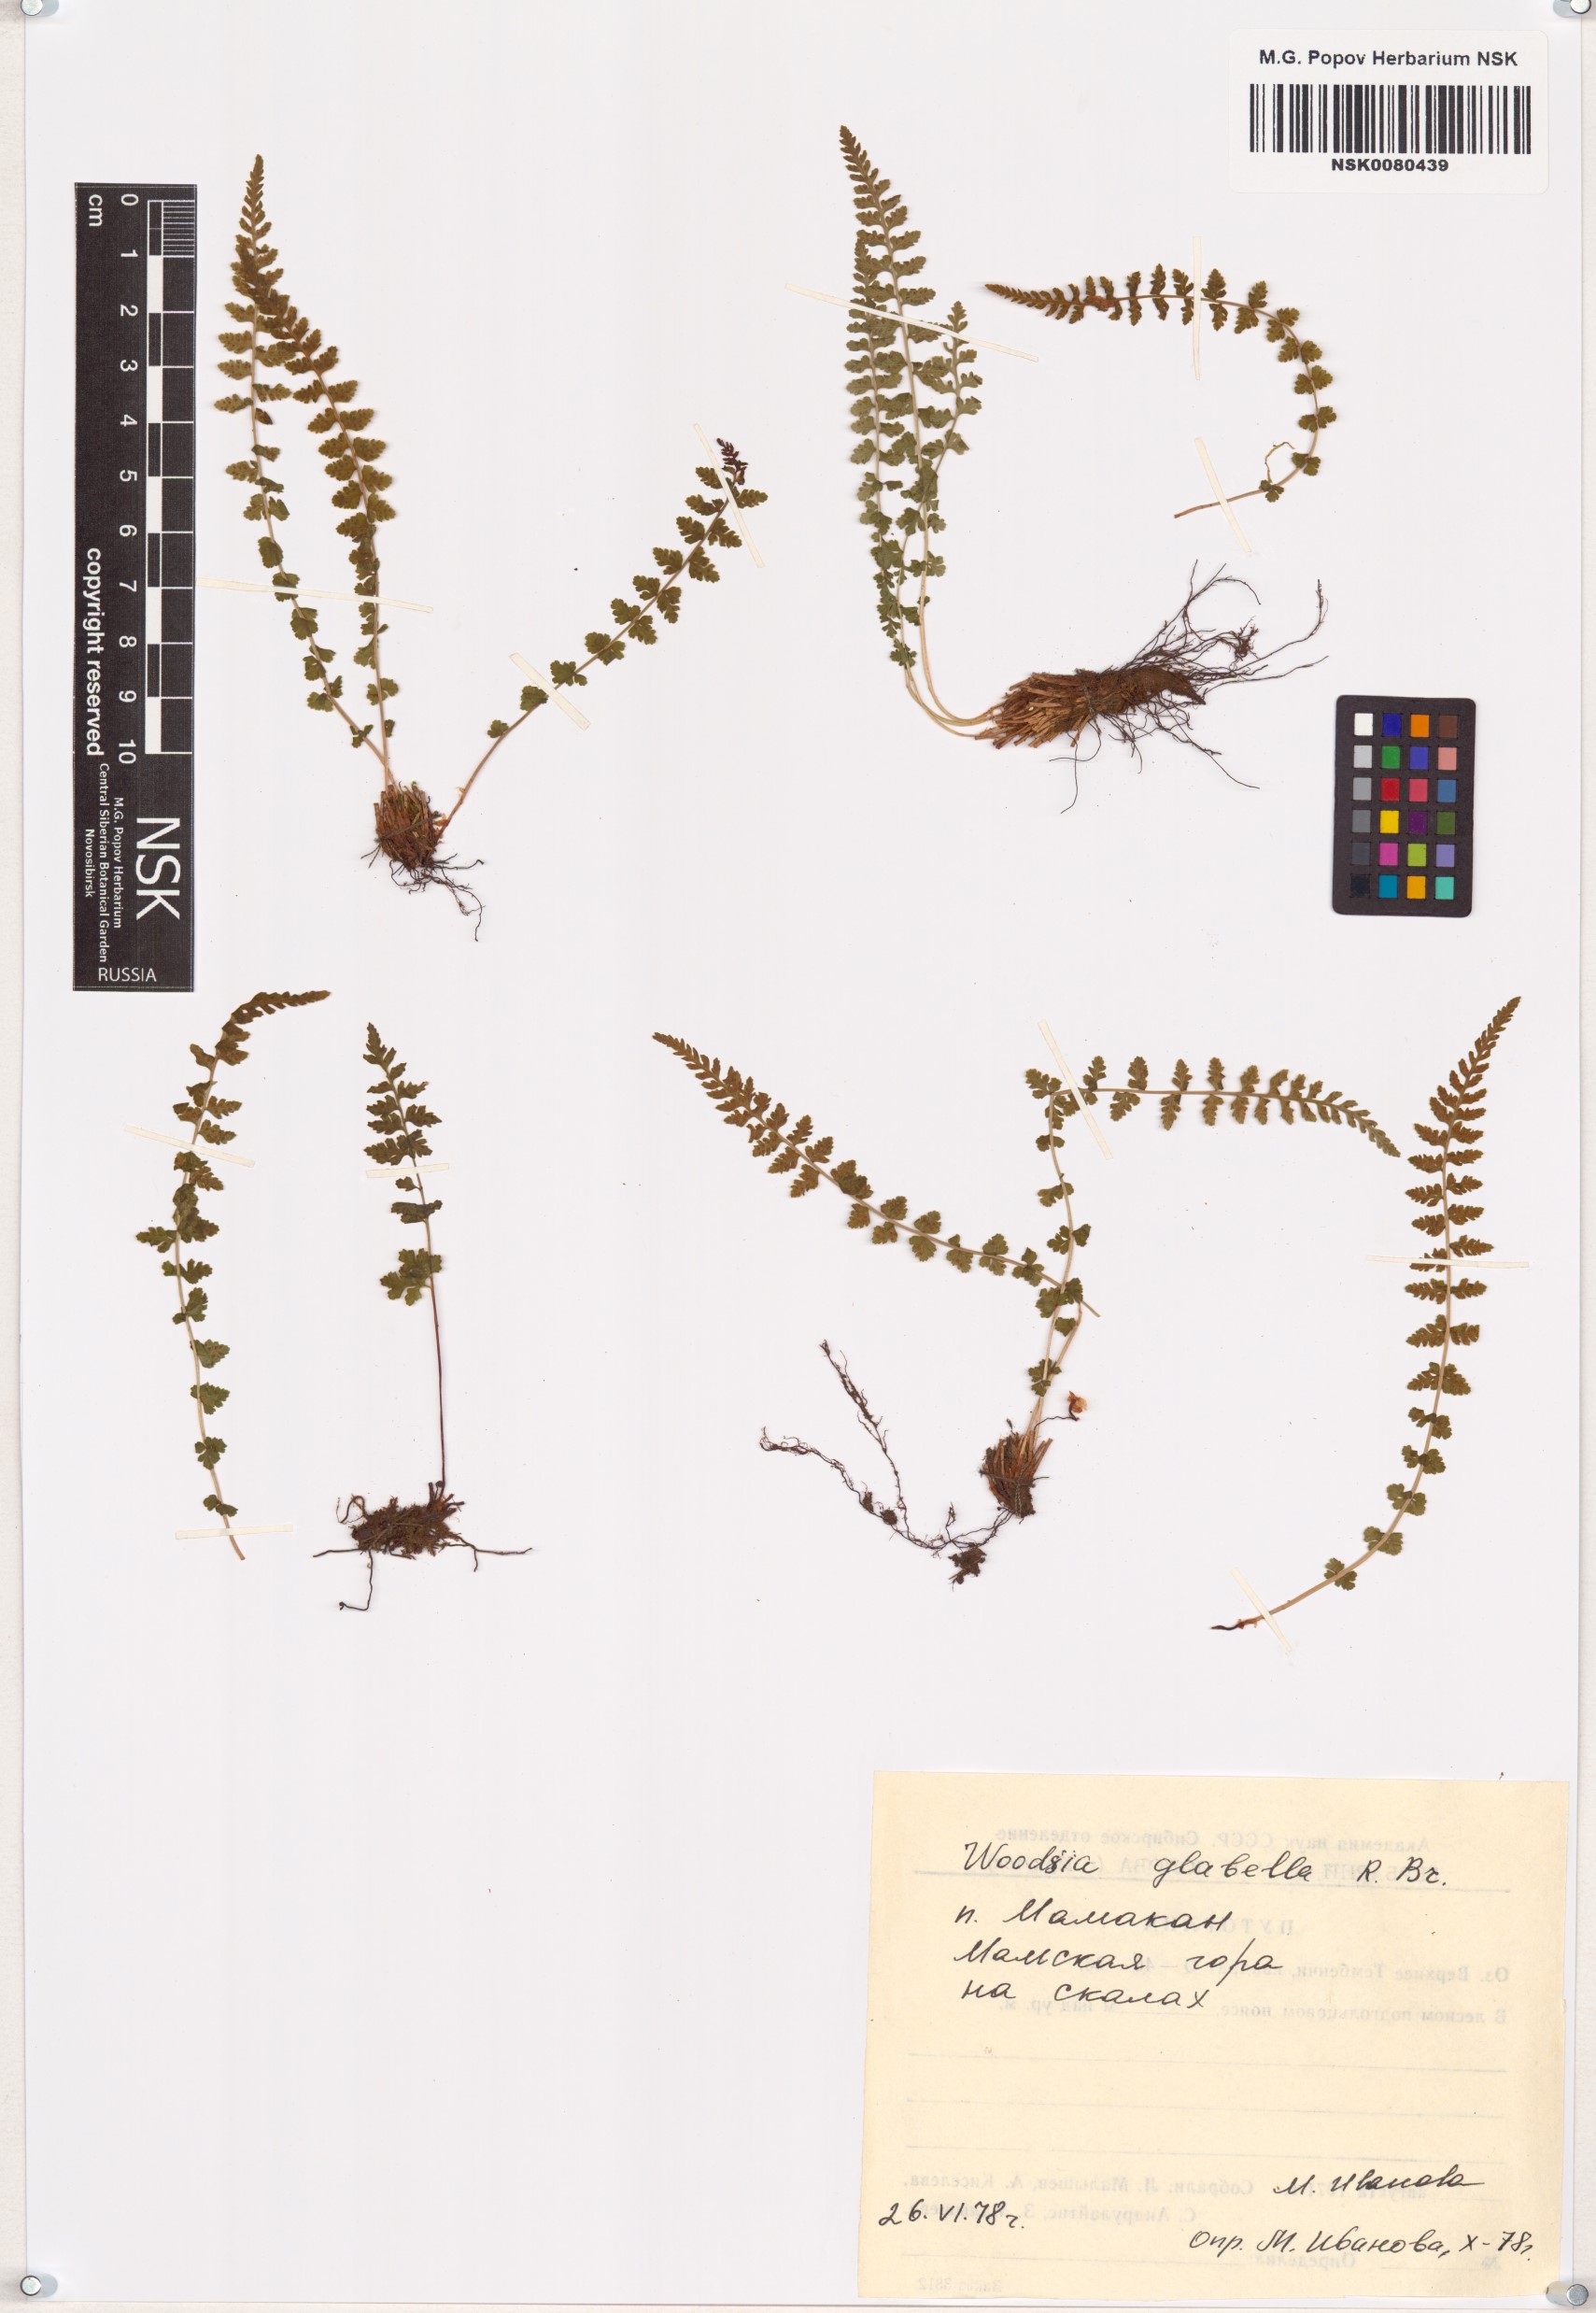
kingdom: Plantae
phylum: Tracheophyta
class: Polypodiopsida
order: Polypodiales
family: Woodsiaceae
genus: Woodsia
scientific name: Woodsia glabella
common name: Smooth woodsia
